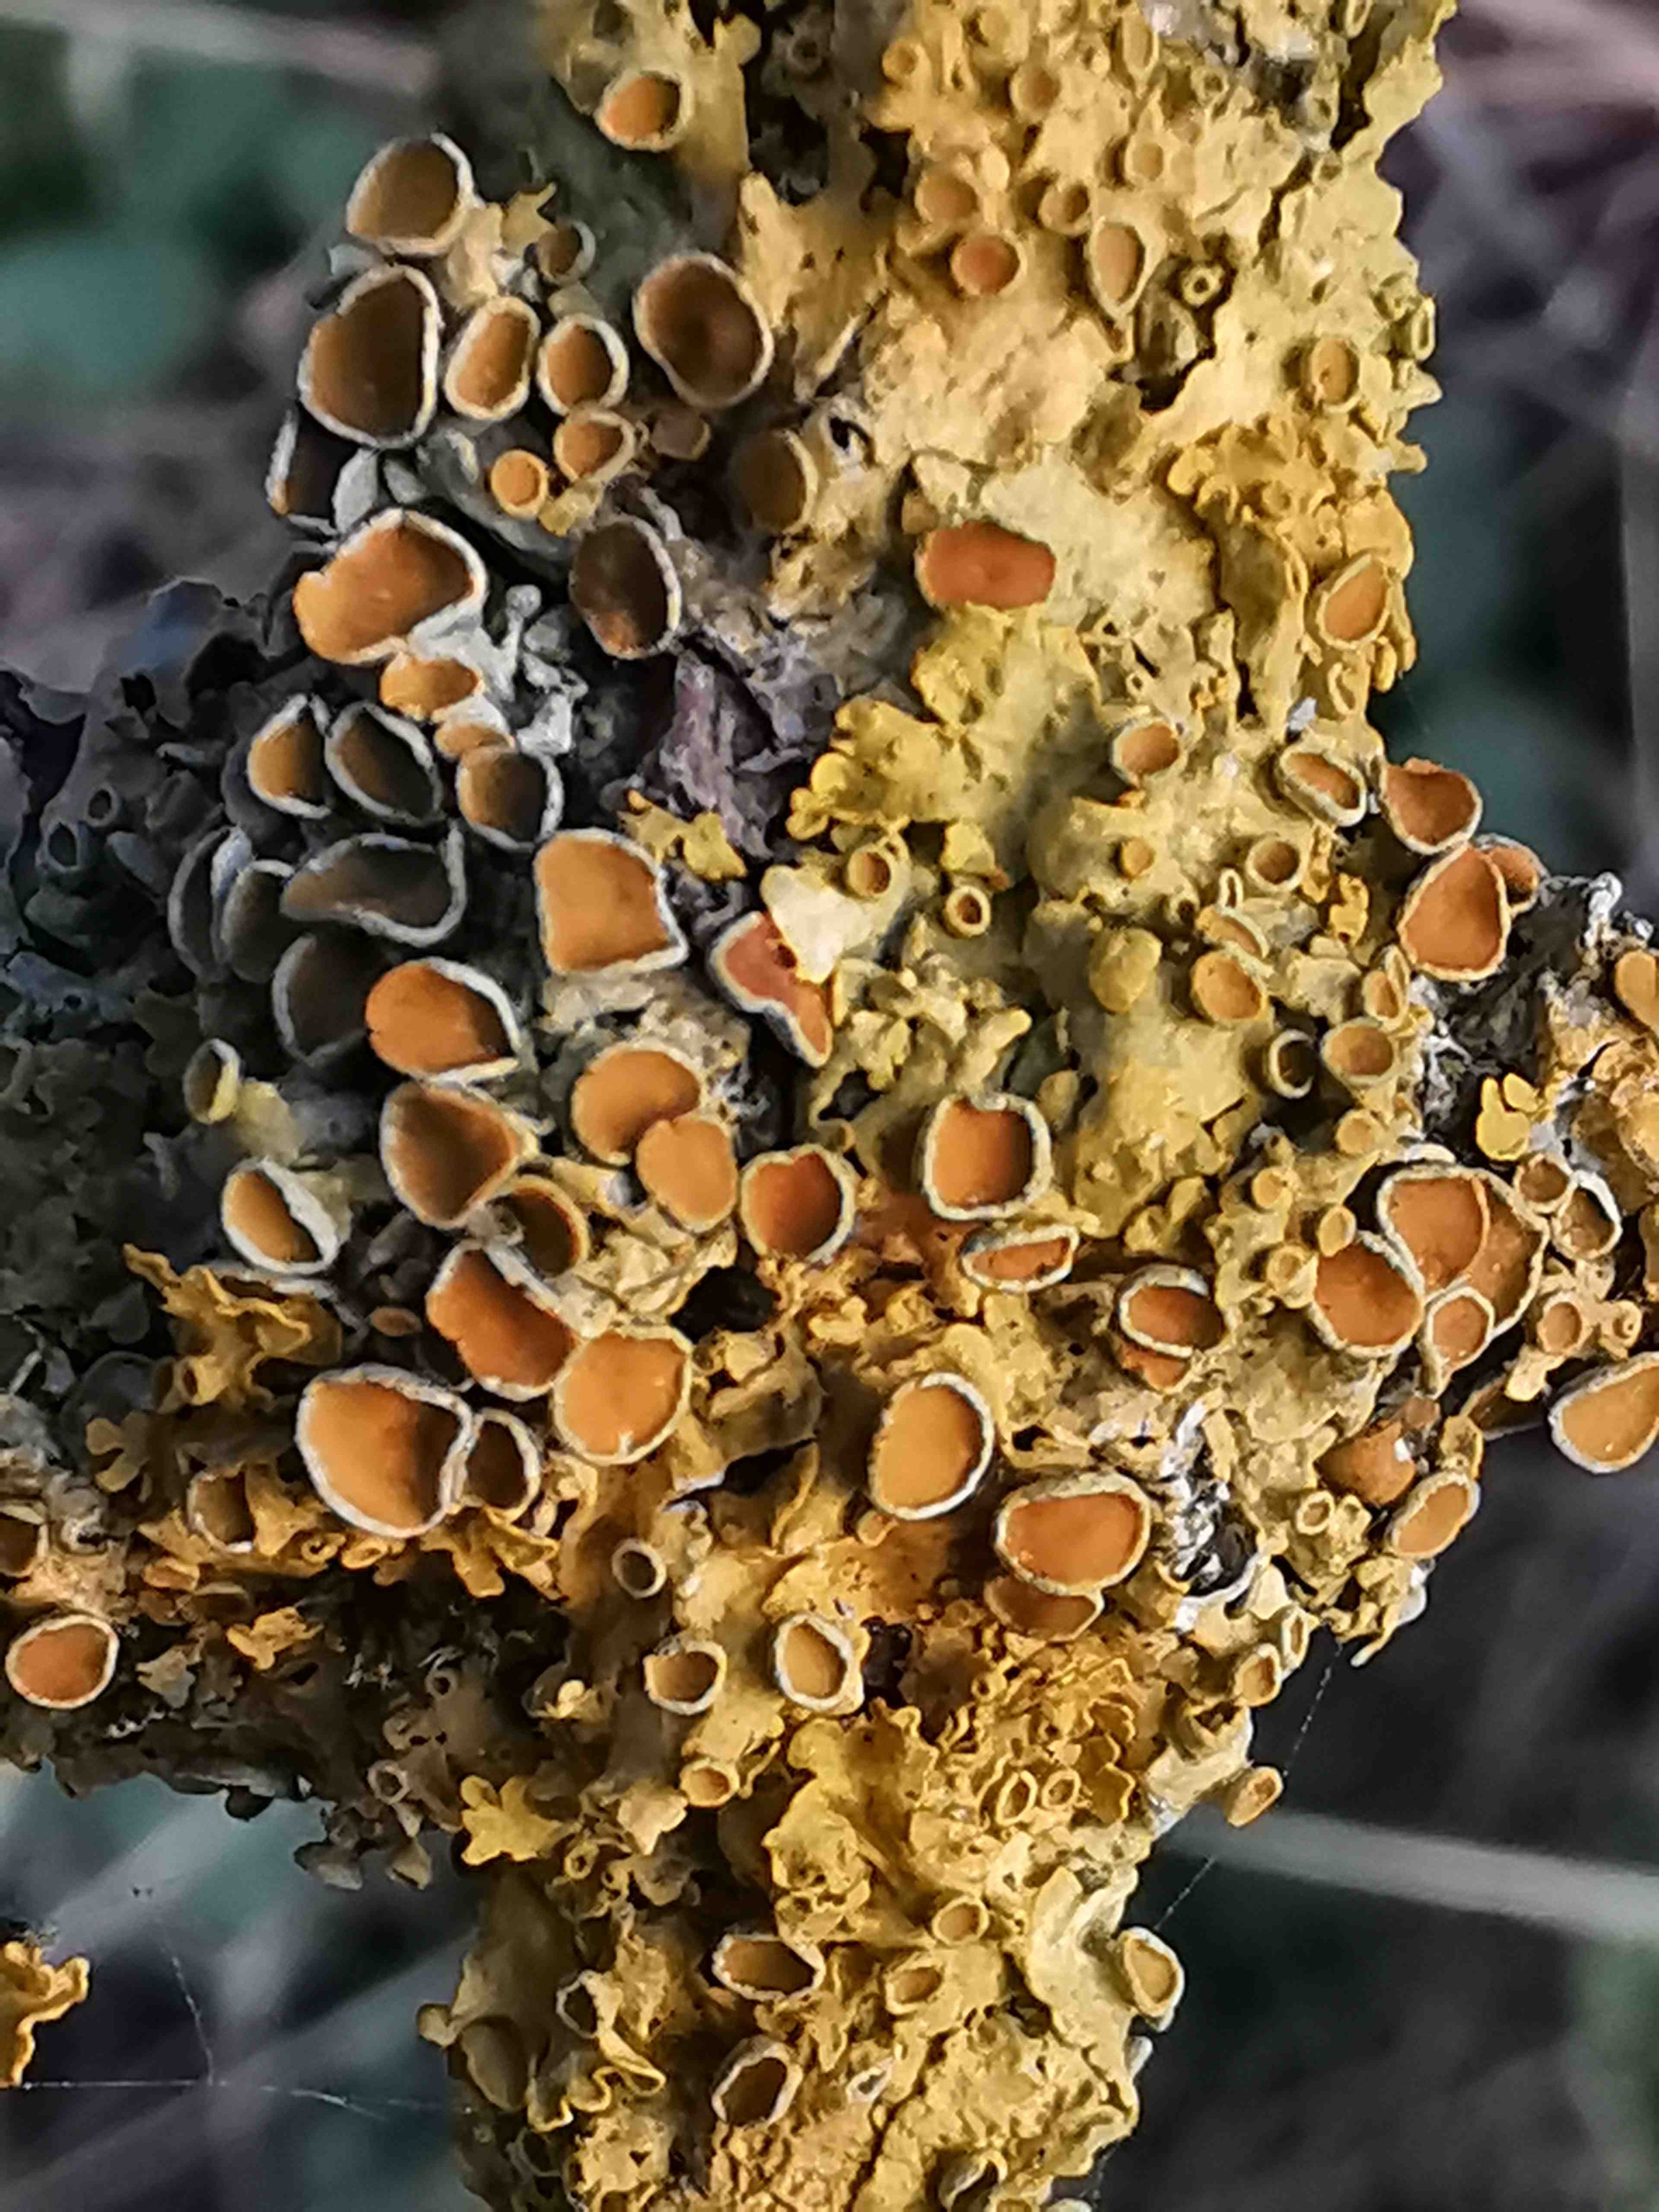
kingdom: Fungi
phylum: Ascomycota
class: Lecanoromycetes
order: Teloschistales
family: Teloschistaceae
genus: Xanthoria
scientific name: Xanthoria parietina
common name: almindelig væggelav
